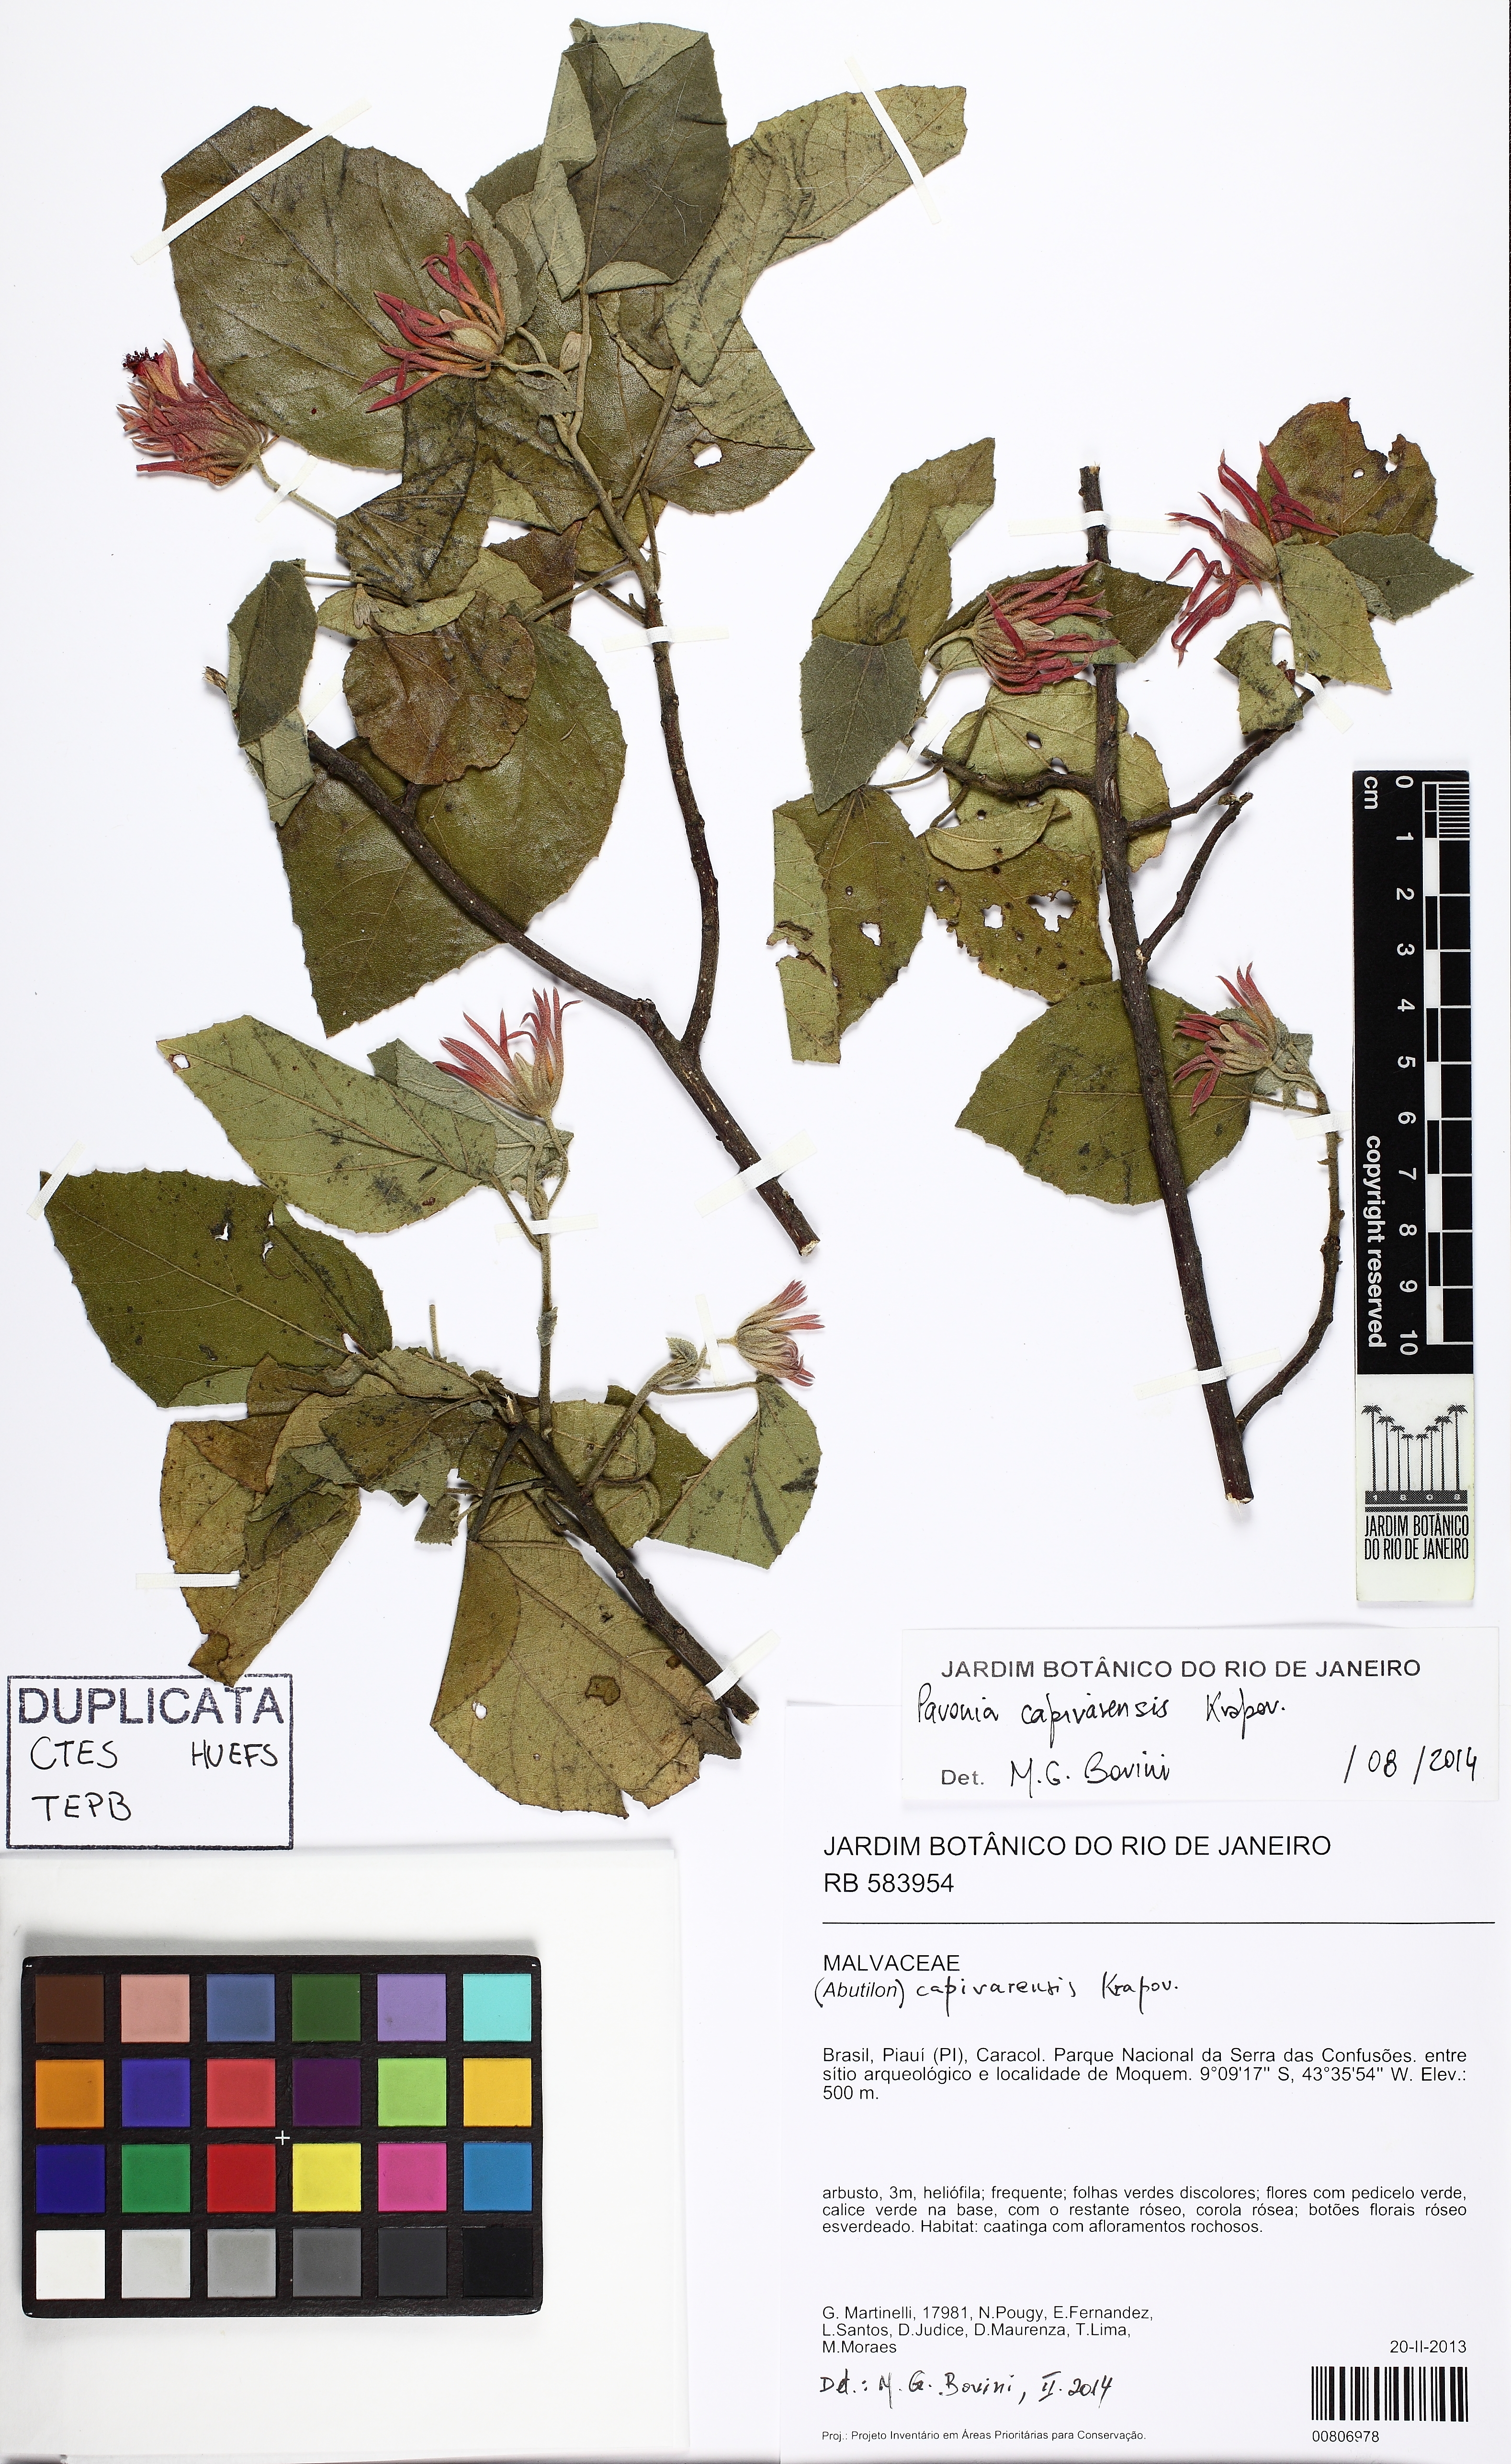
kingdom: Plantae
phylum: Tracheophyta
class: Magnoliopsida
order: Malvales
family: Malvaceae
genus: Pavonia
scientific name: Pavonia glazioviana
